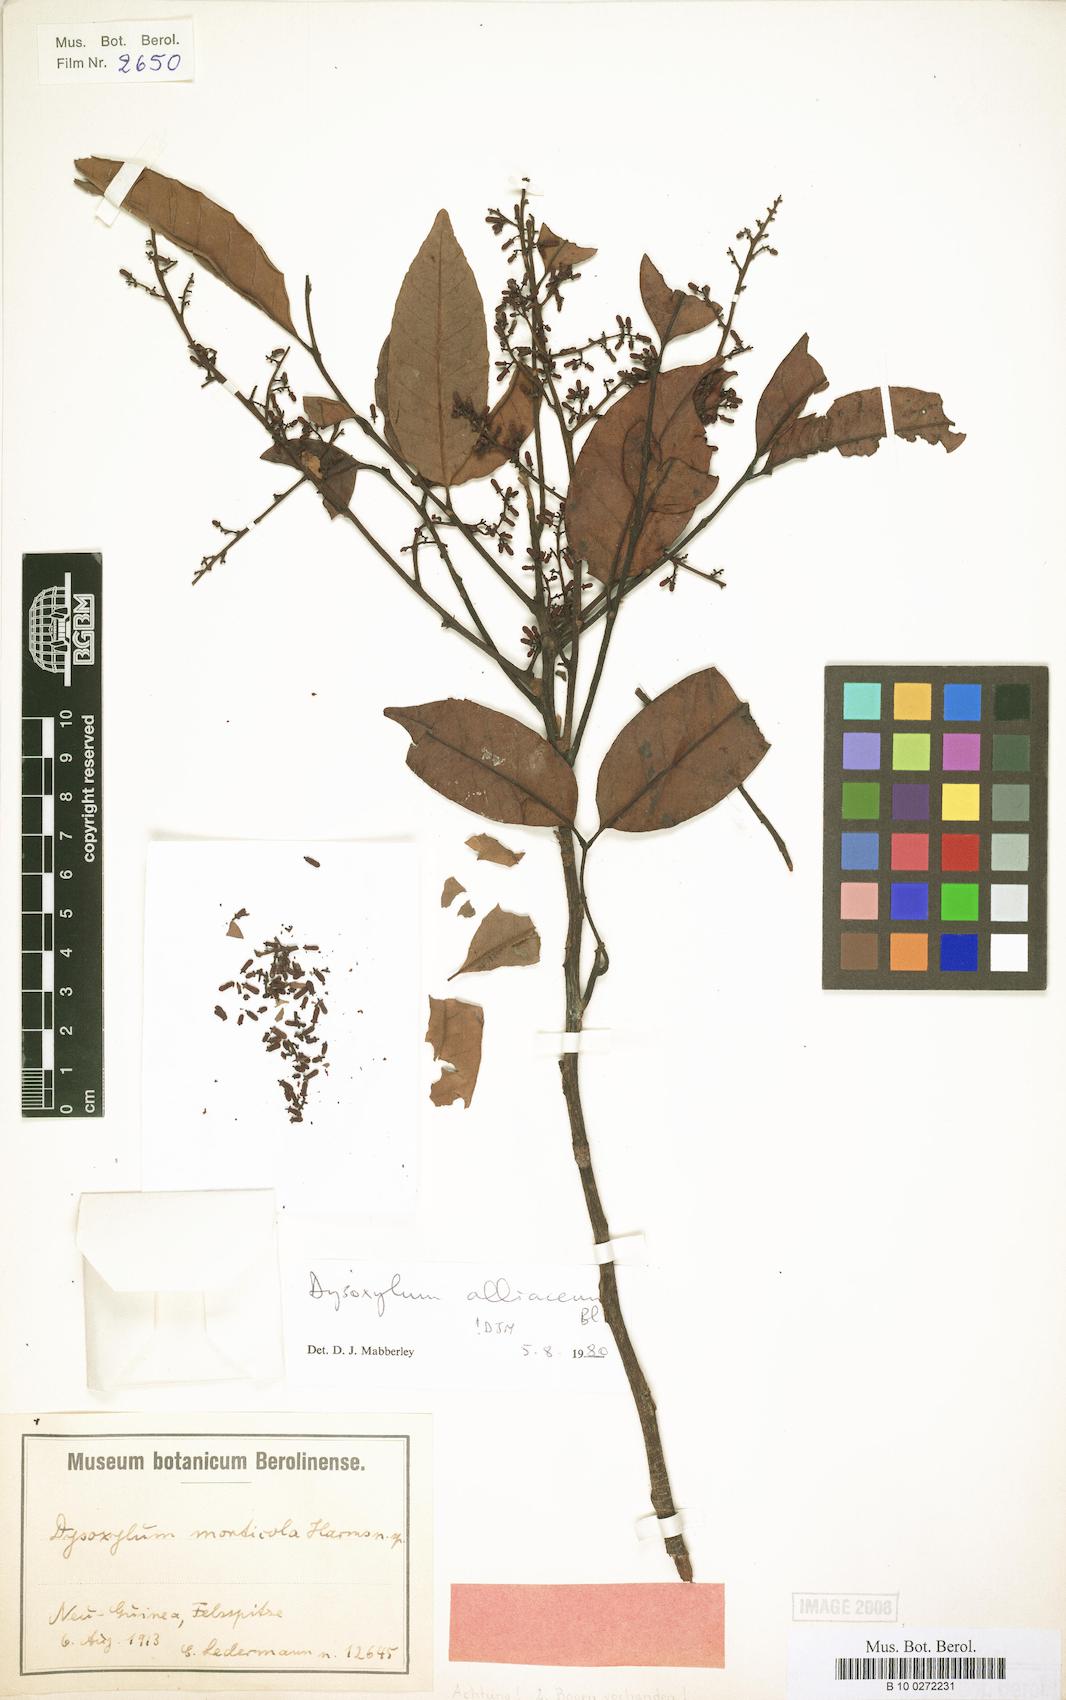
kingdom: Plantae
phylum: Tracheophyta
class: Magnoliopsida
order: Sapindales
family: Meliaceae
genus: Prasoxylon
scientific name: Prasoxylon alliaceum
